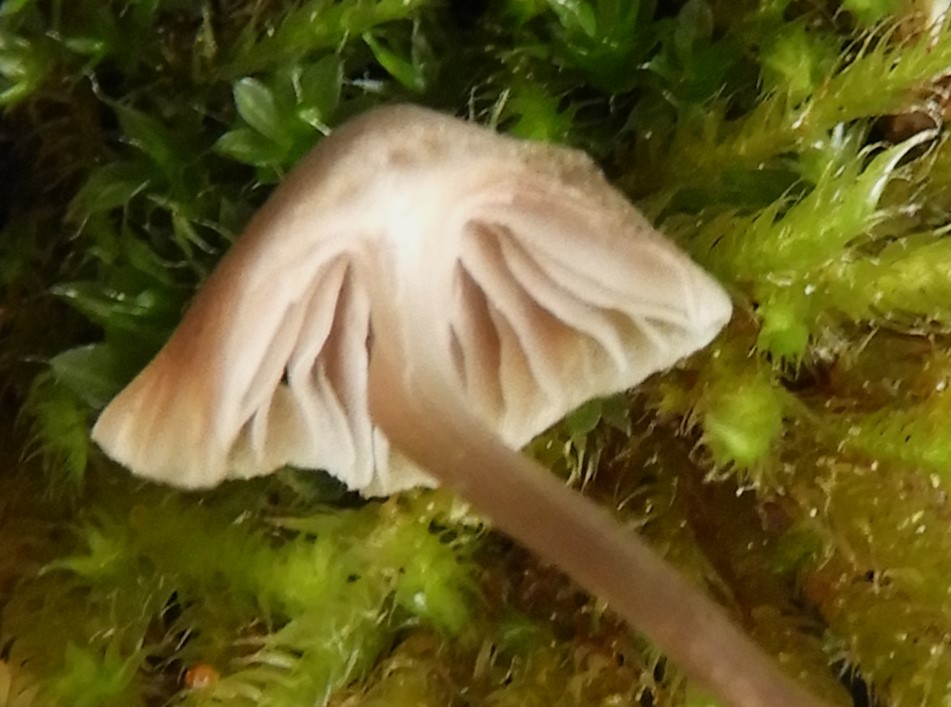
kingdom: Fungi
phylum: Basidiomycota
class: Agaricomycetes
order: Agaricales
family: Mycenaceae
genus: Mycena
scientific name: Mycena
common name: huesvamp
